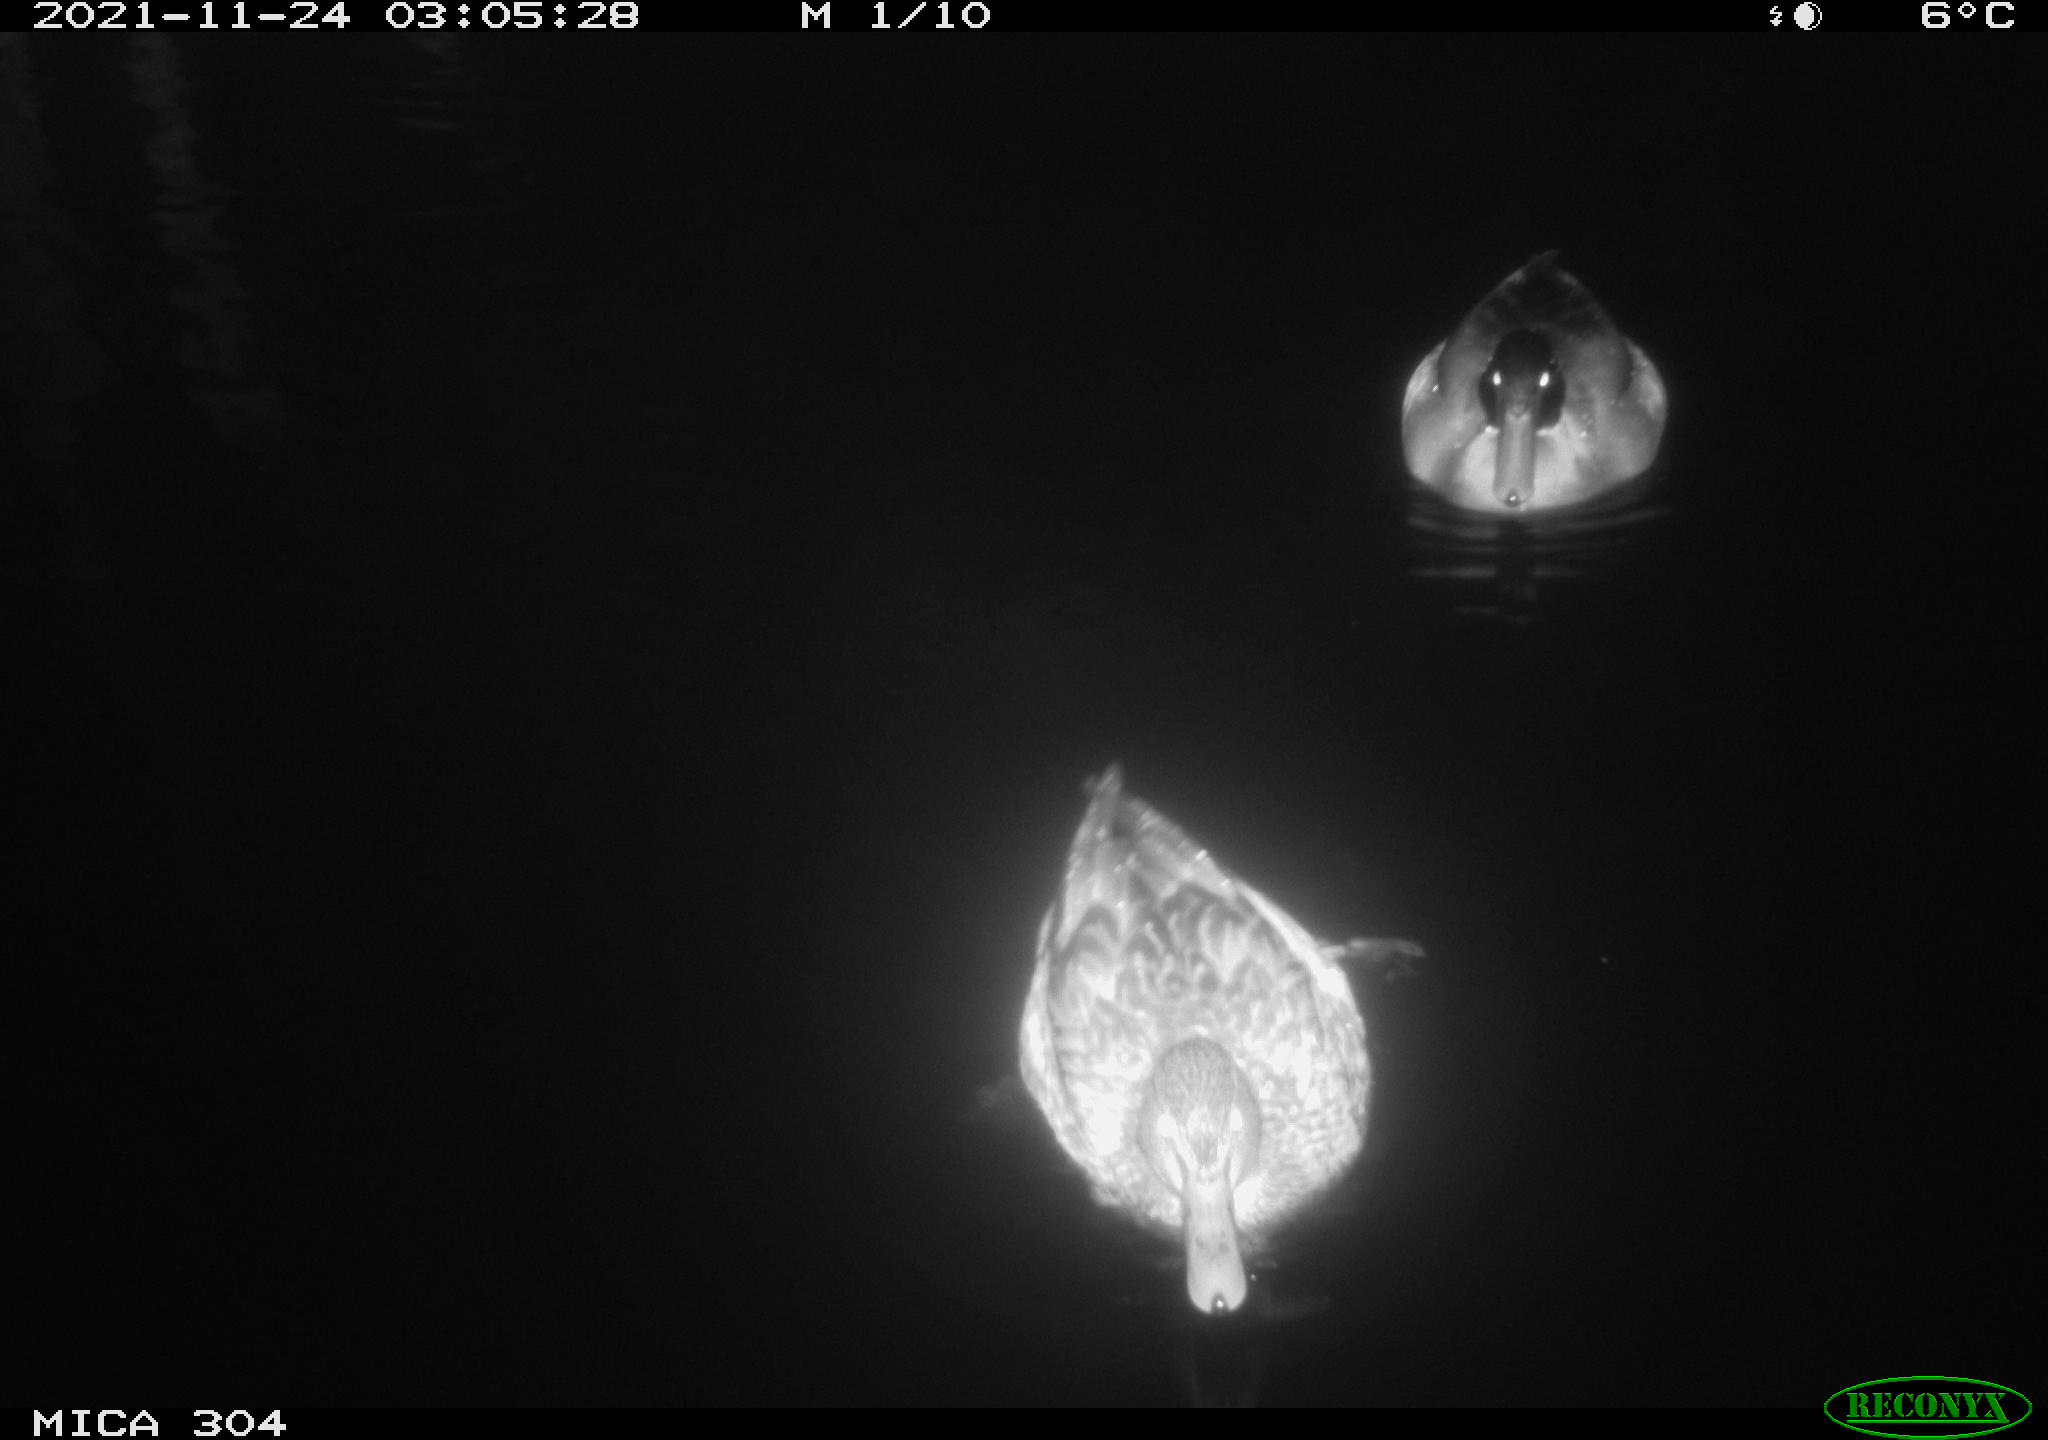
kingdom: Animalia
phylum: Chordata
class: Aves
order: Anseriformes
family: Anatidae
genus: Anas
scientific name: Anas platyrhynchos
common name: Mallard
